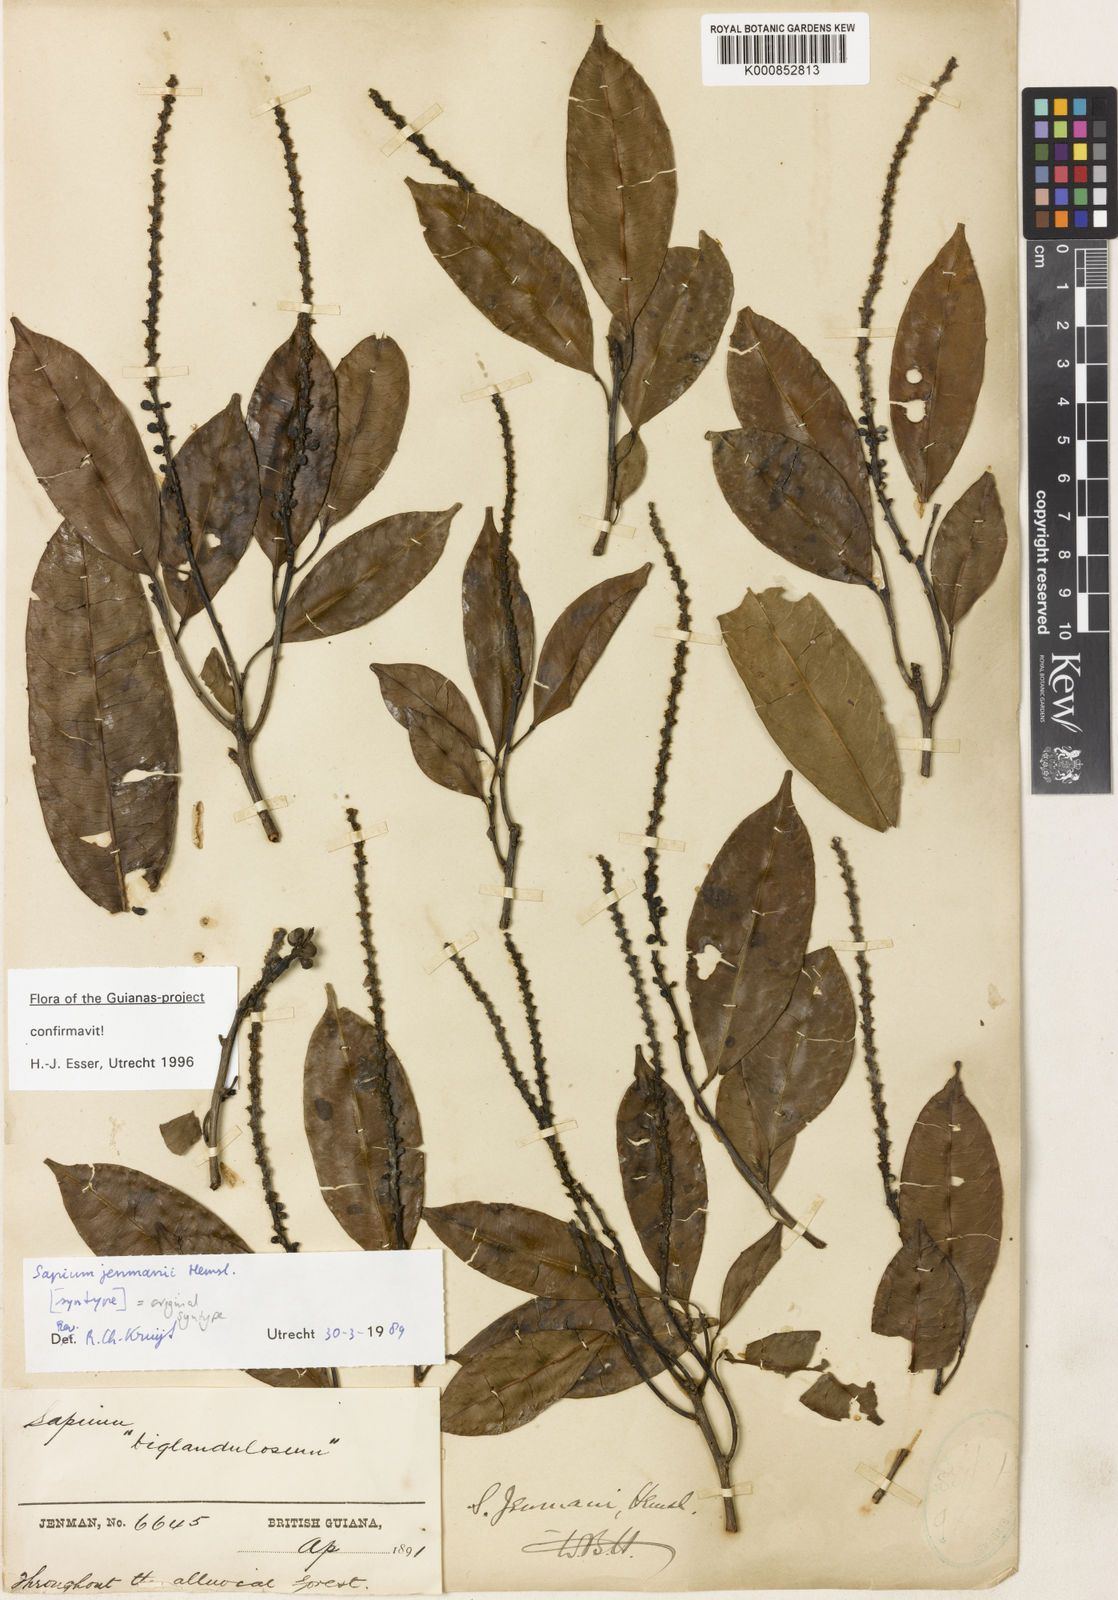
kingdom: Plantae
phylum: Tracheophyta
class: Magnoliopsida
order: Malpighiales
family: Euphorbiaceae
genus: Sapium
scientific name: Sapium jenmannii
